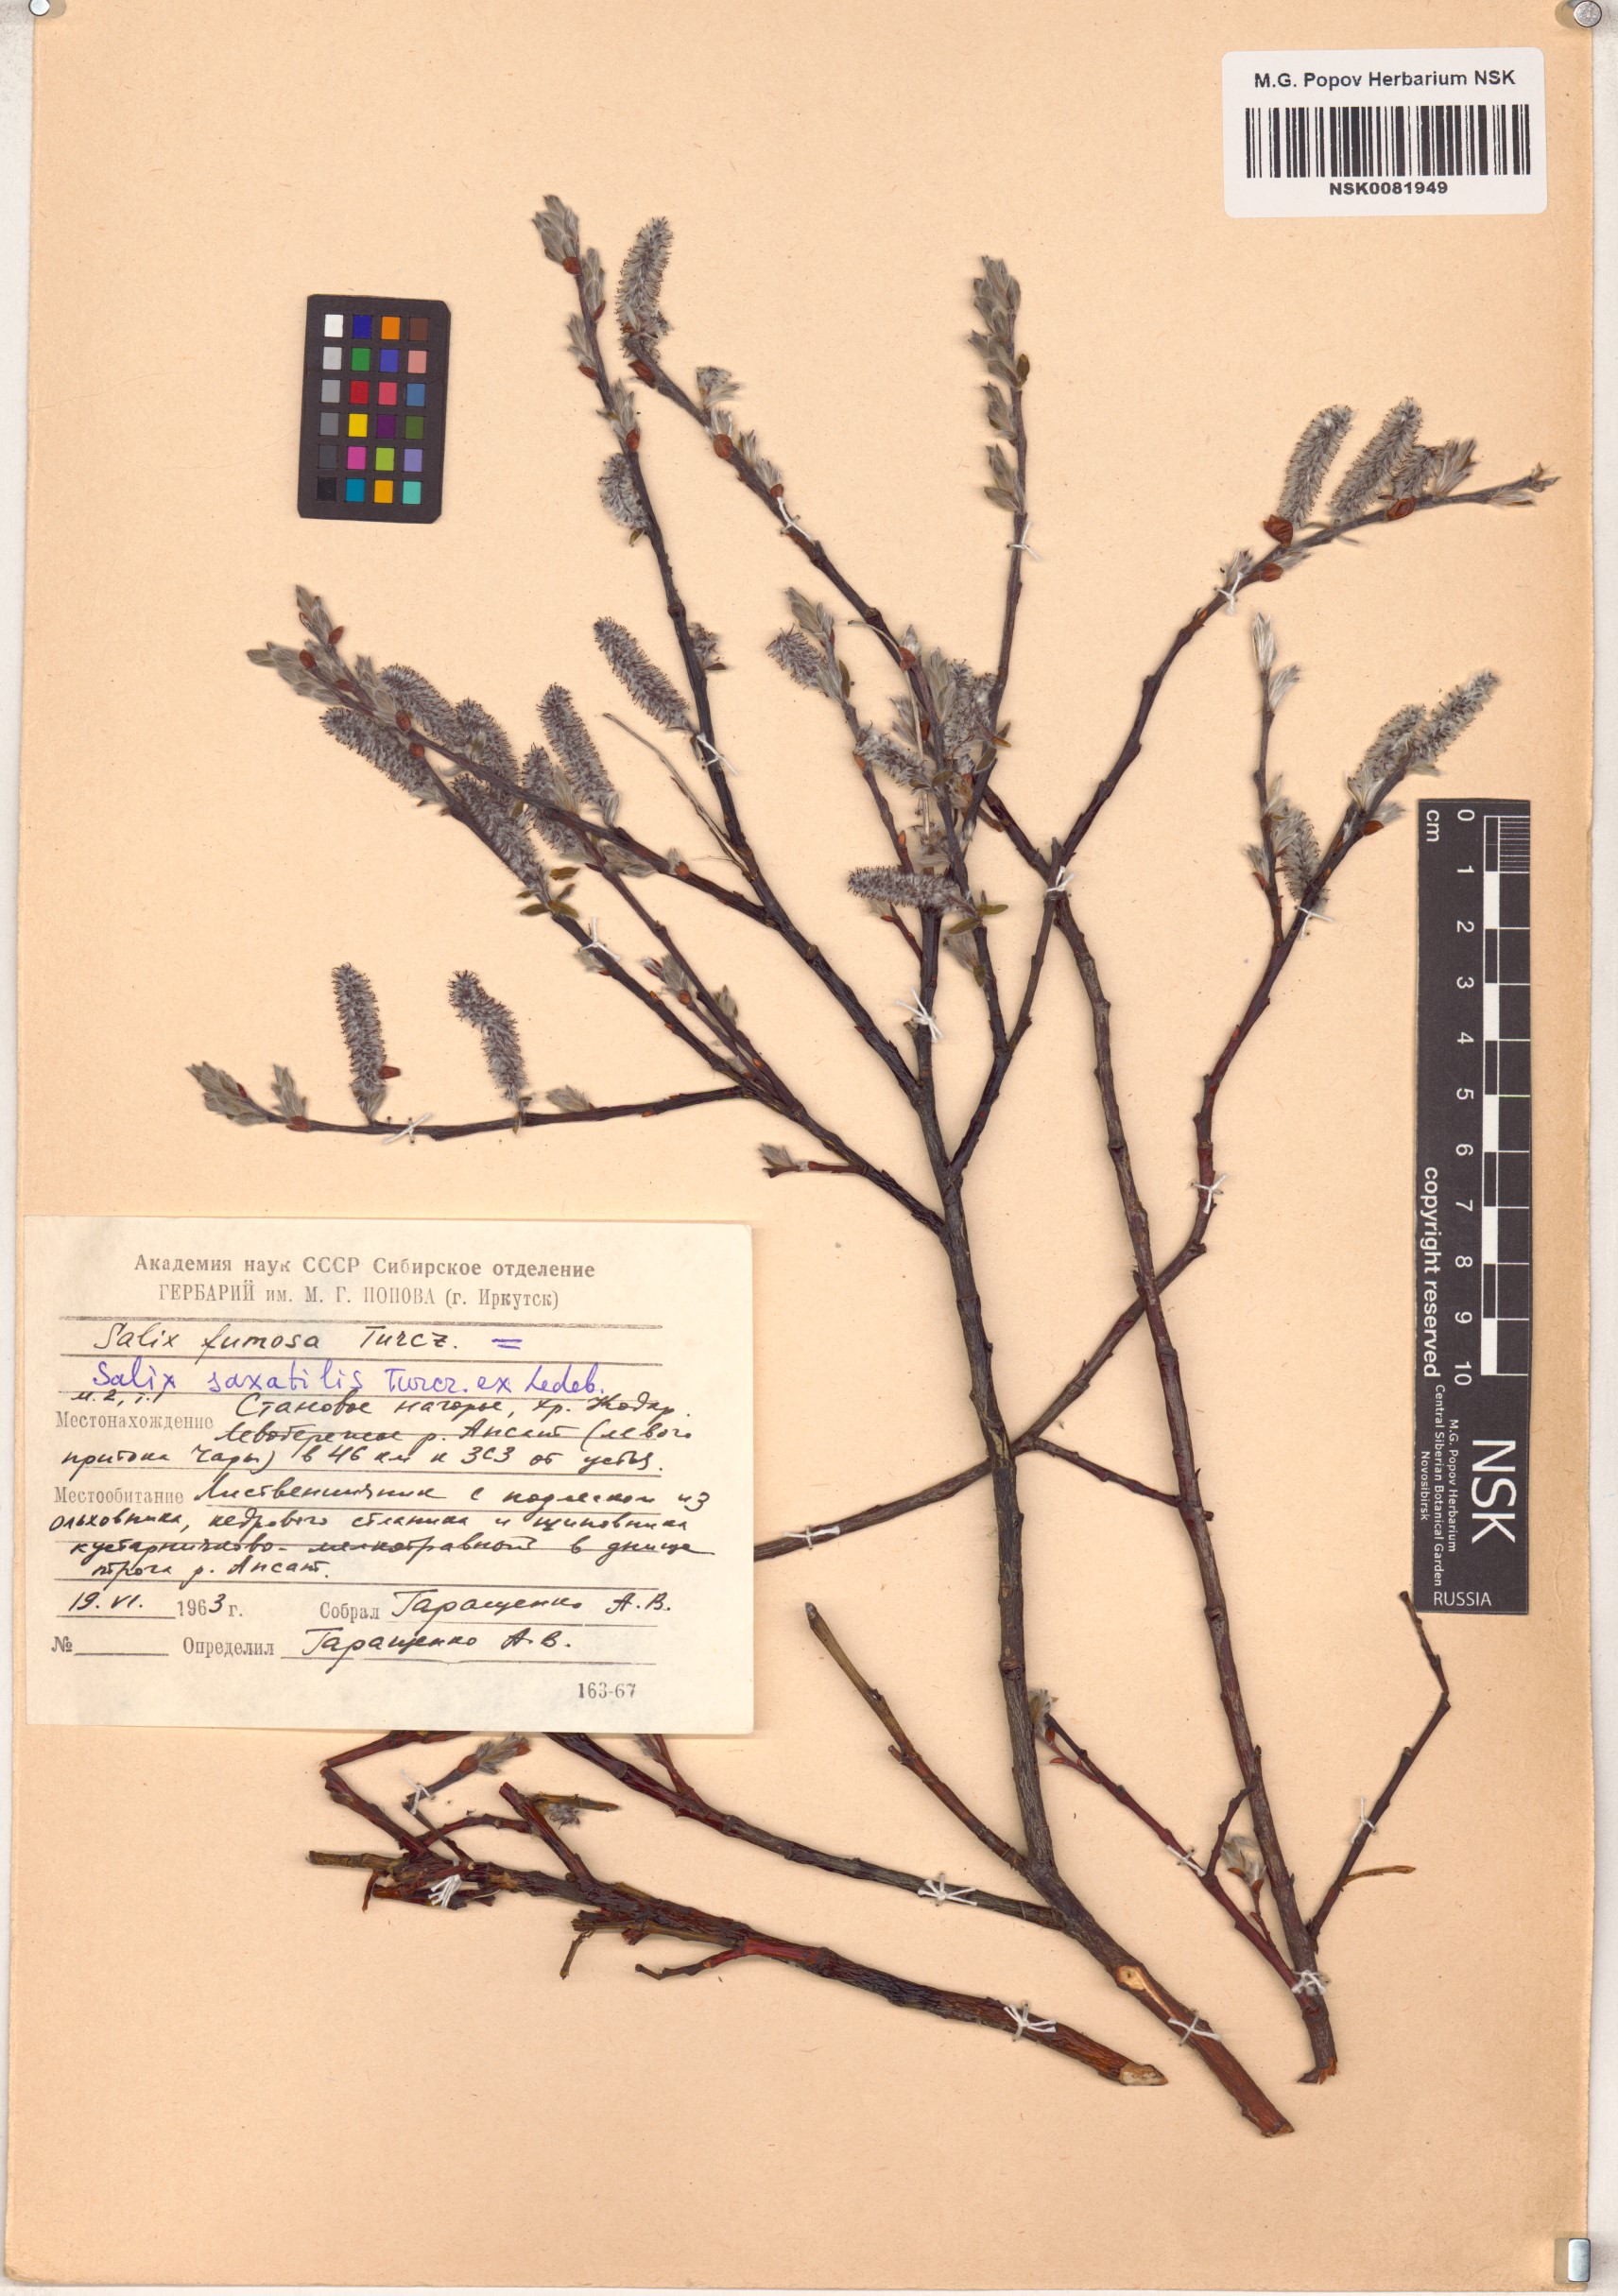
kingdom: Plantae
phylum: Tracheophyta
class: Magnoliopsida
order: Malpighiales
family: Salicaceae
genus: Salix
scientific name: Salix saxatilis
